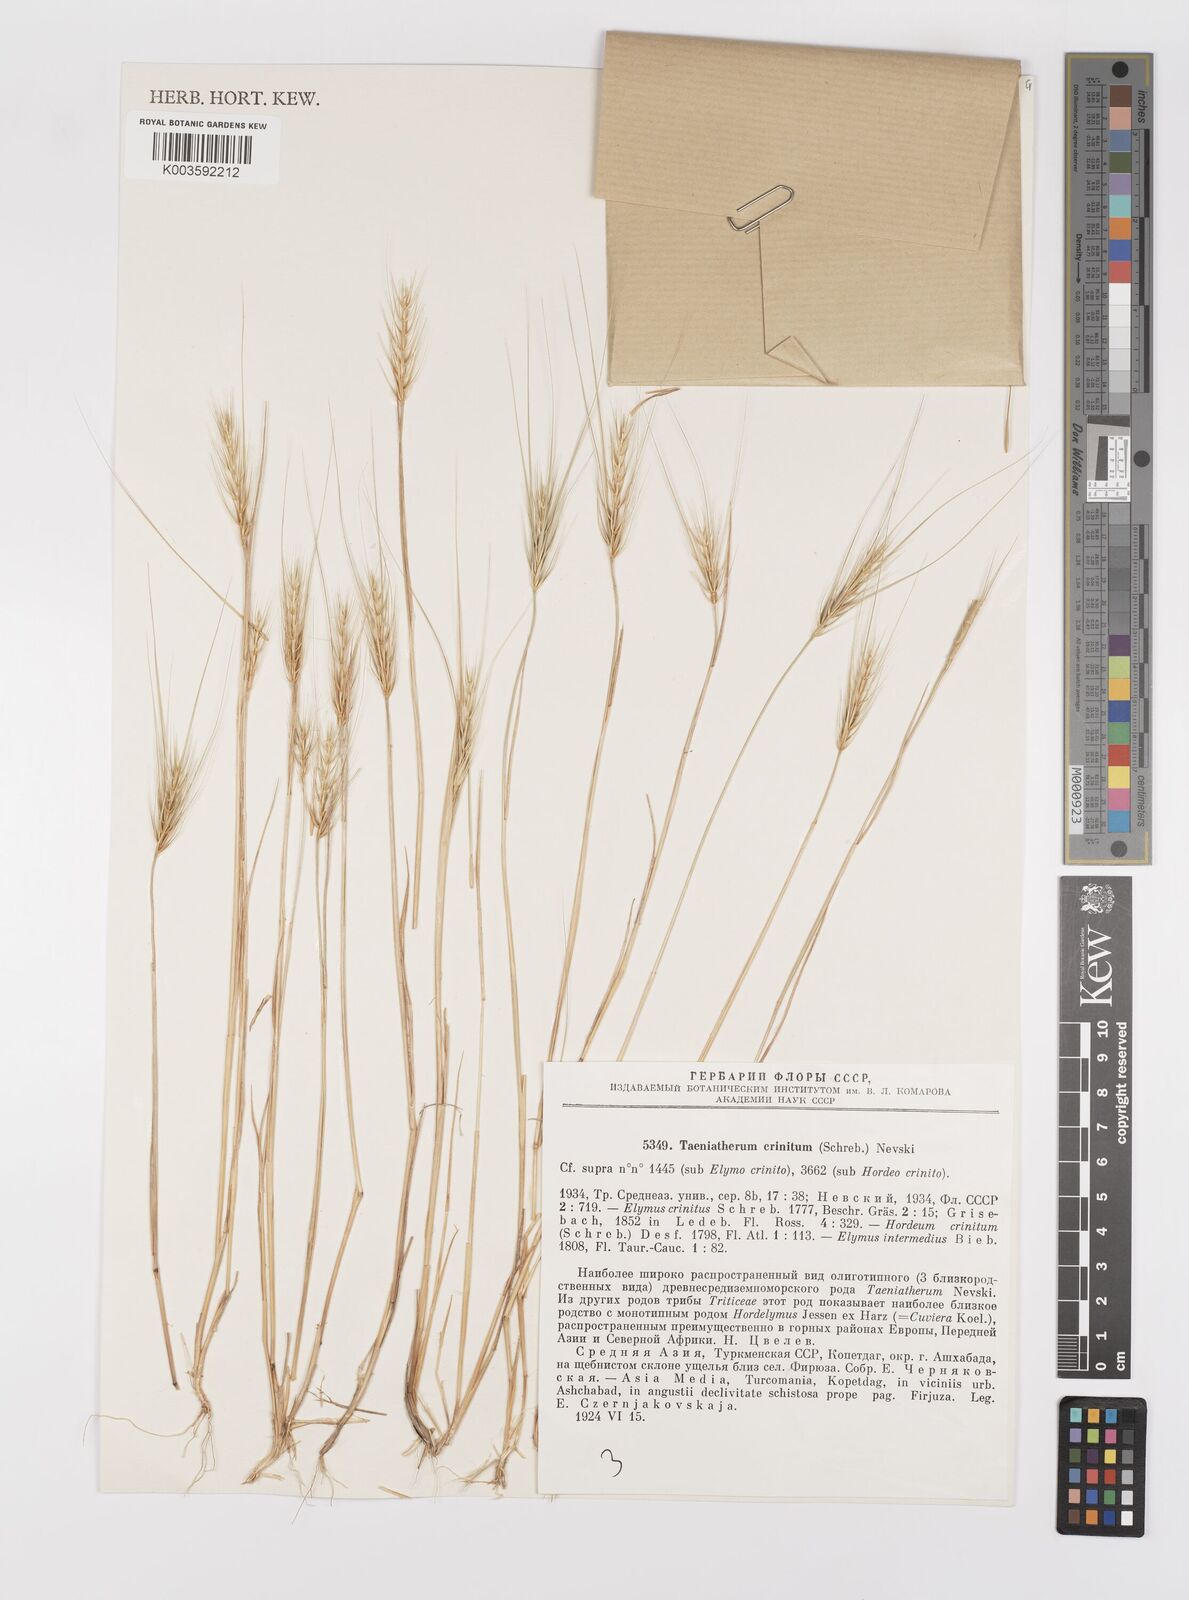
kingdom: Plantae
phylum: Tracheophyta
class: Liliopsida
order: Poales
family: Poaceae
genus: Taeniatherum
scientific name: Taeniatherum caput-medusae
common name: Medusahead
